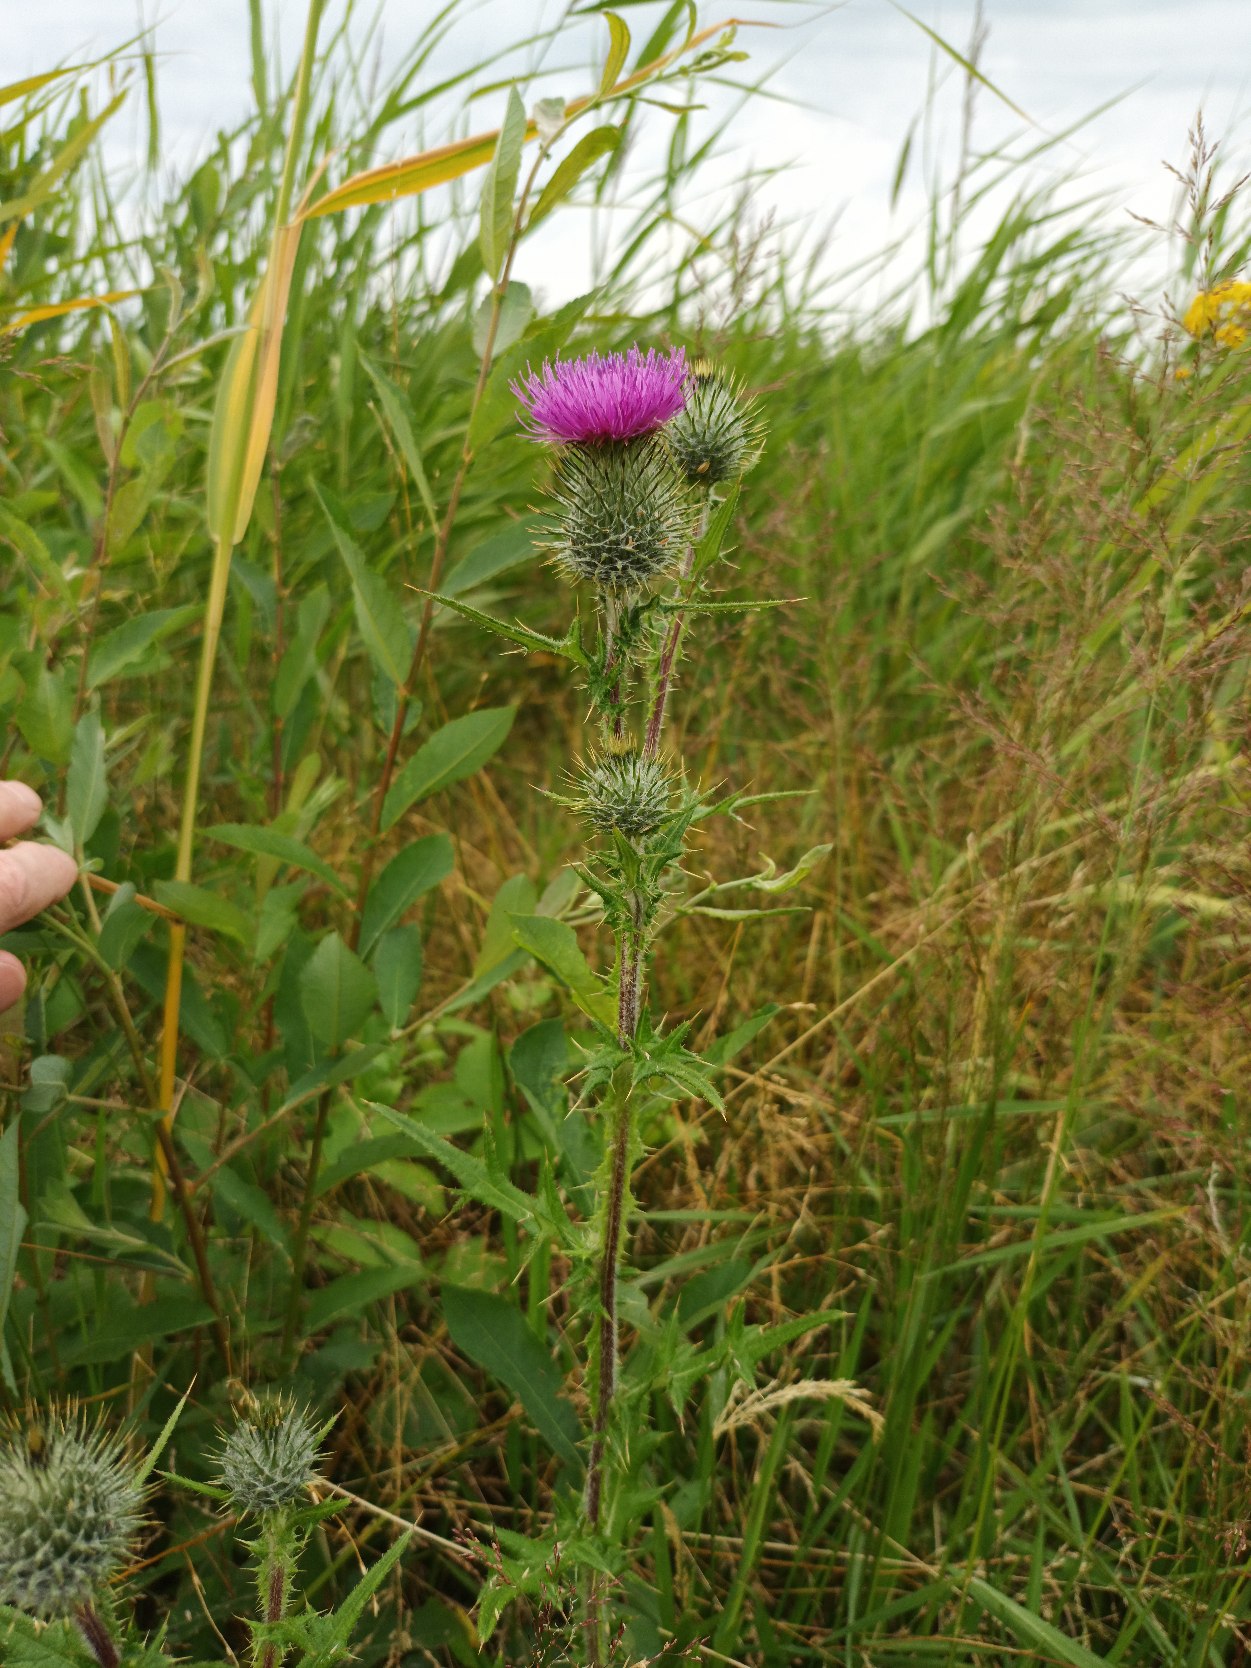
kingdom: Plantae
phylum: Tracheophyta
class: Magnoliopsida
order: Asterales
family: Asteraceae
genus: Cirsium
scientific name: Cirsium vulgare
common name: Horse-tidsel
